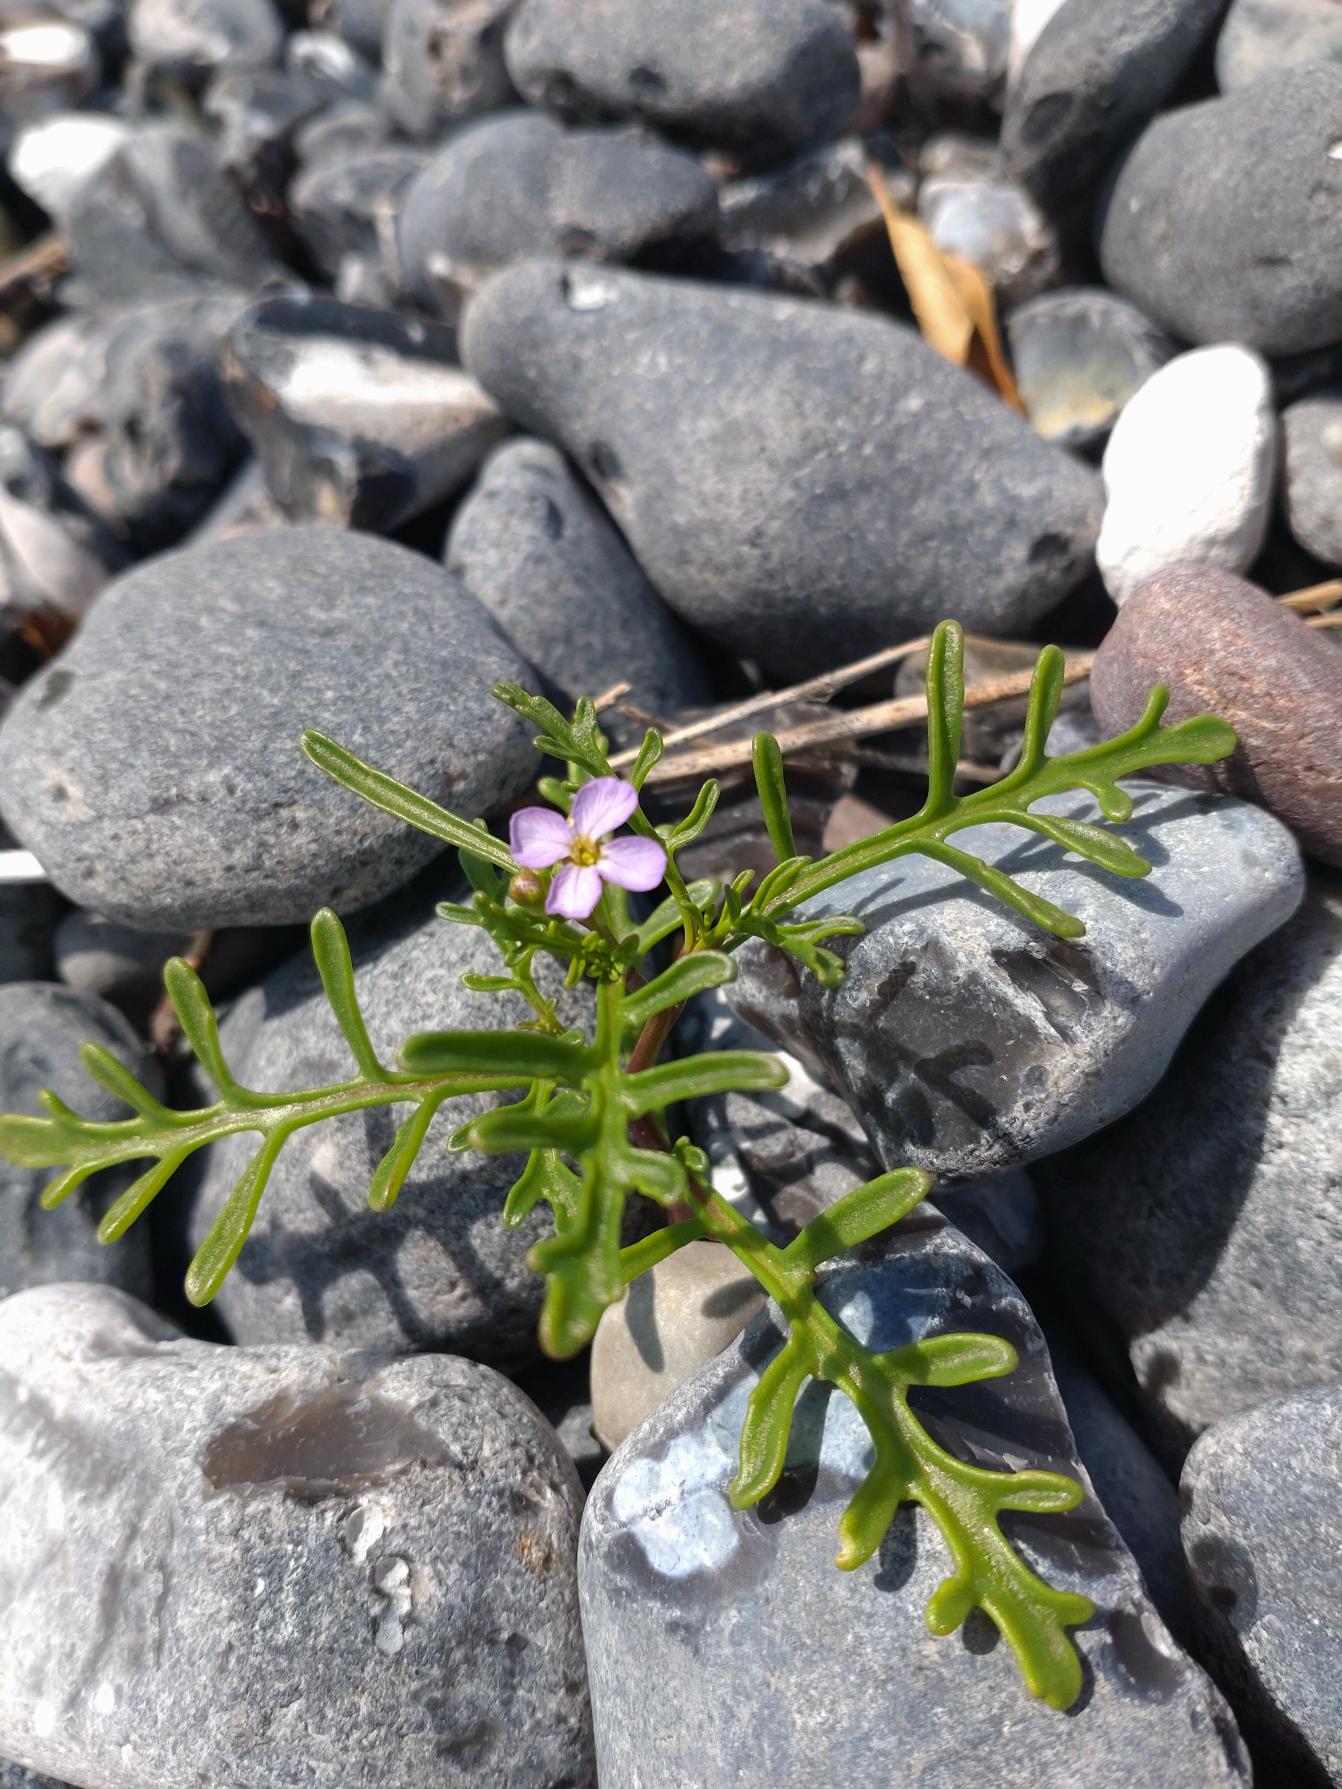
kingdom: Plantae
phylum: Tracheophyta
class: Magnoliopsida
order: Brassicales
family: Brassicaceae
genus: Cakile
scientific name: Cakile maritima
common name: Strandsennep
